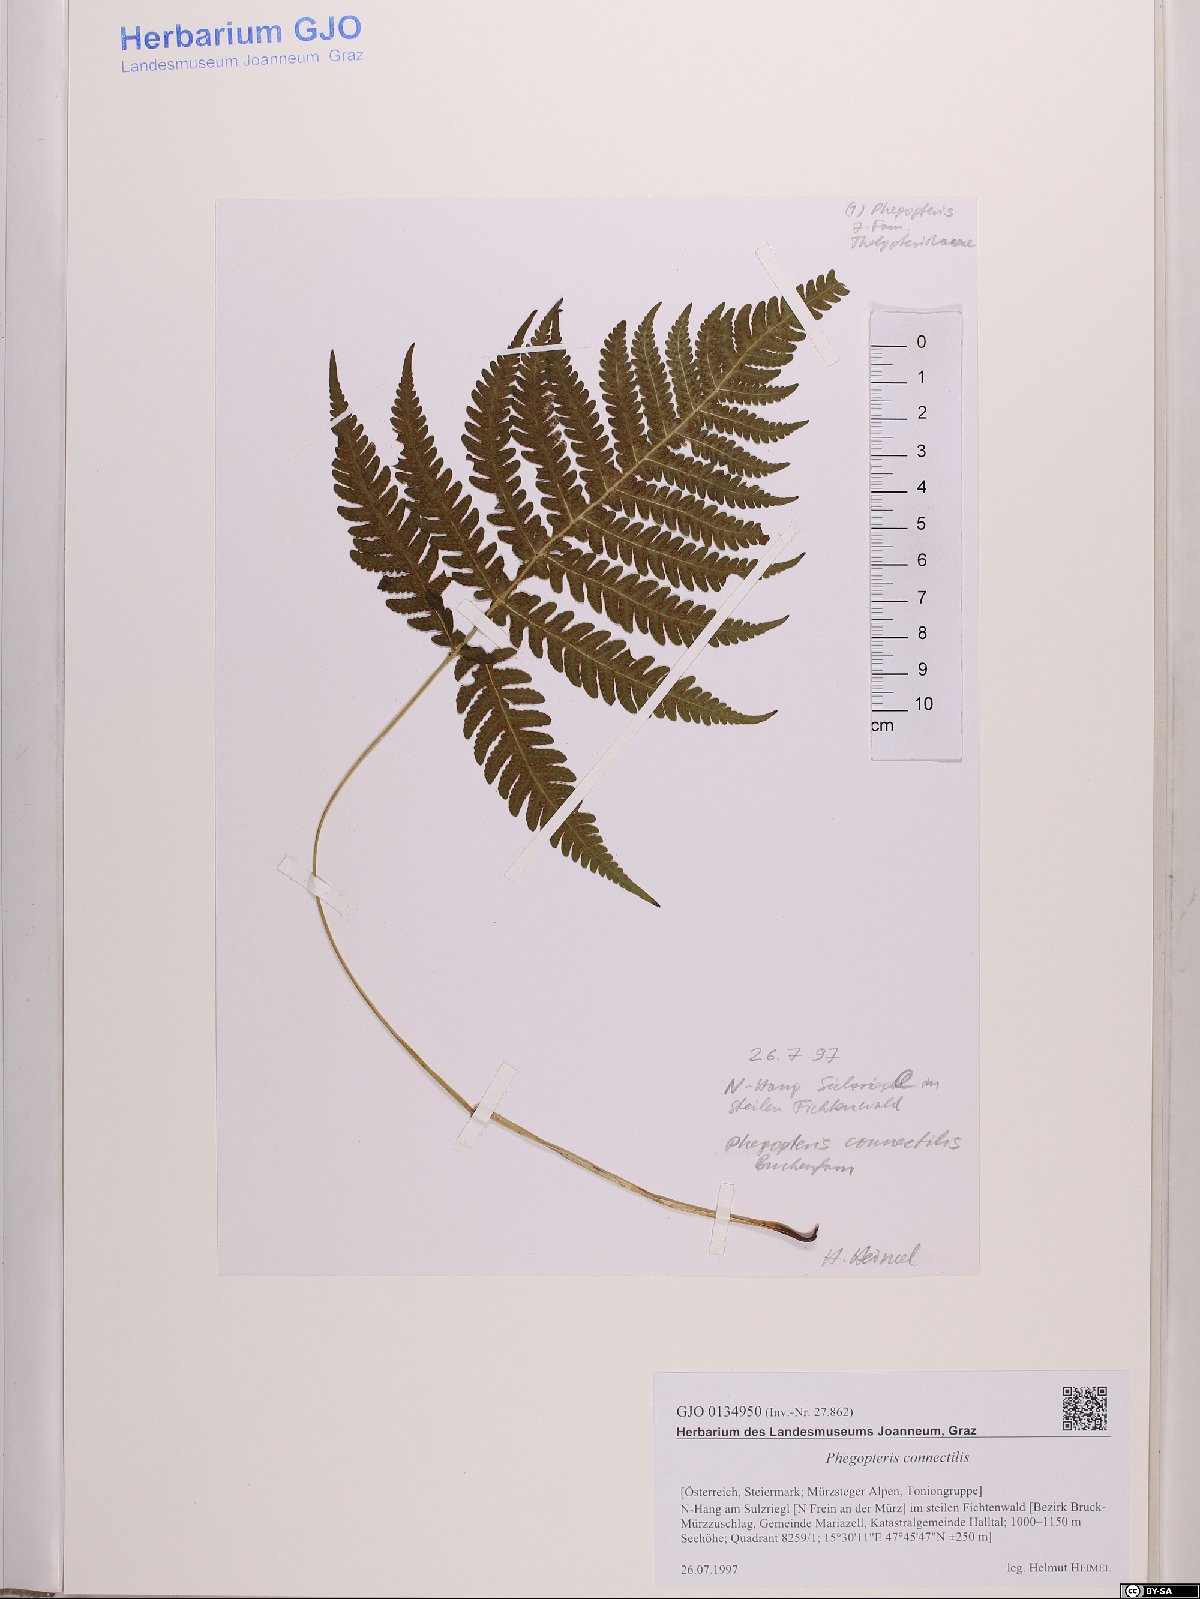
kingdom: Plantae
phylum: Tracheophyta
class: Polypodiopsida
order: Polypodiales
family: Thelypteridaceae
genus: Phegopteris
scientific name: Phegopteris connectilis
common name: Beech fern
